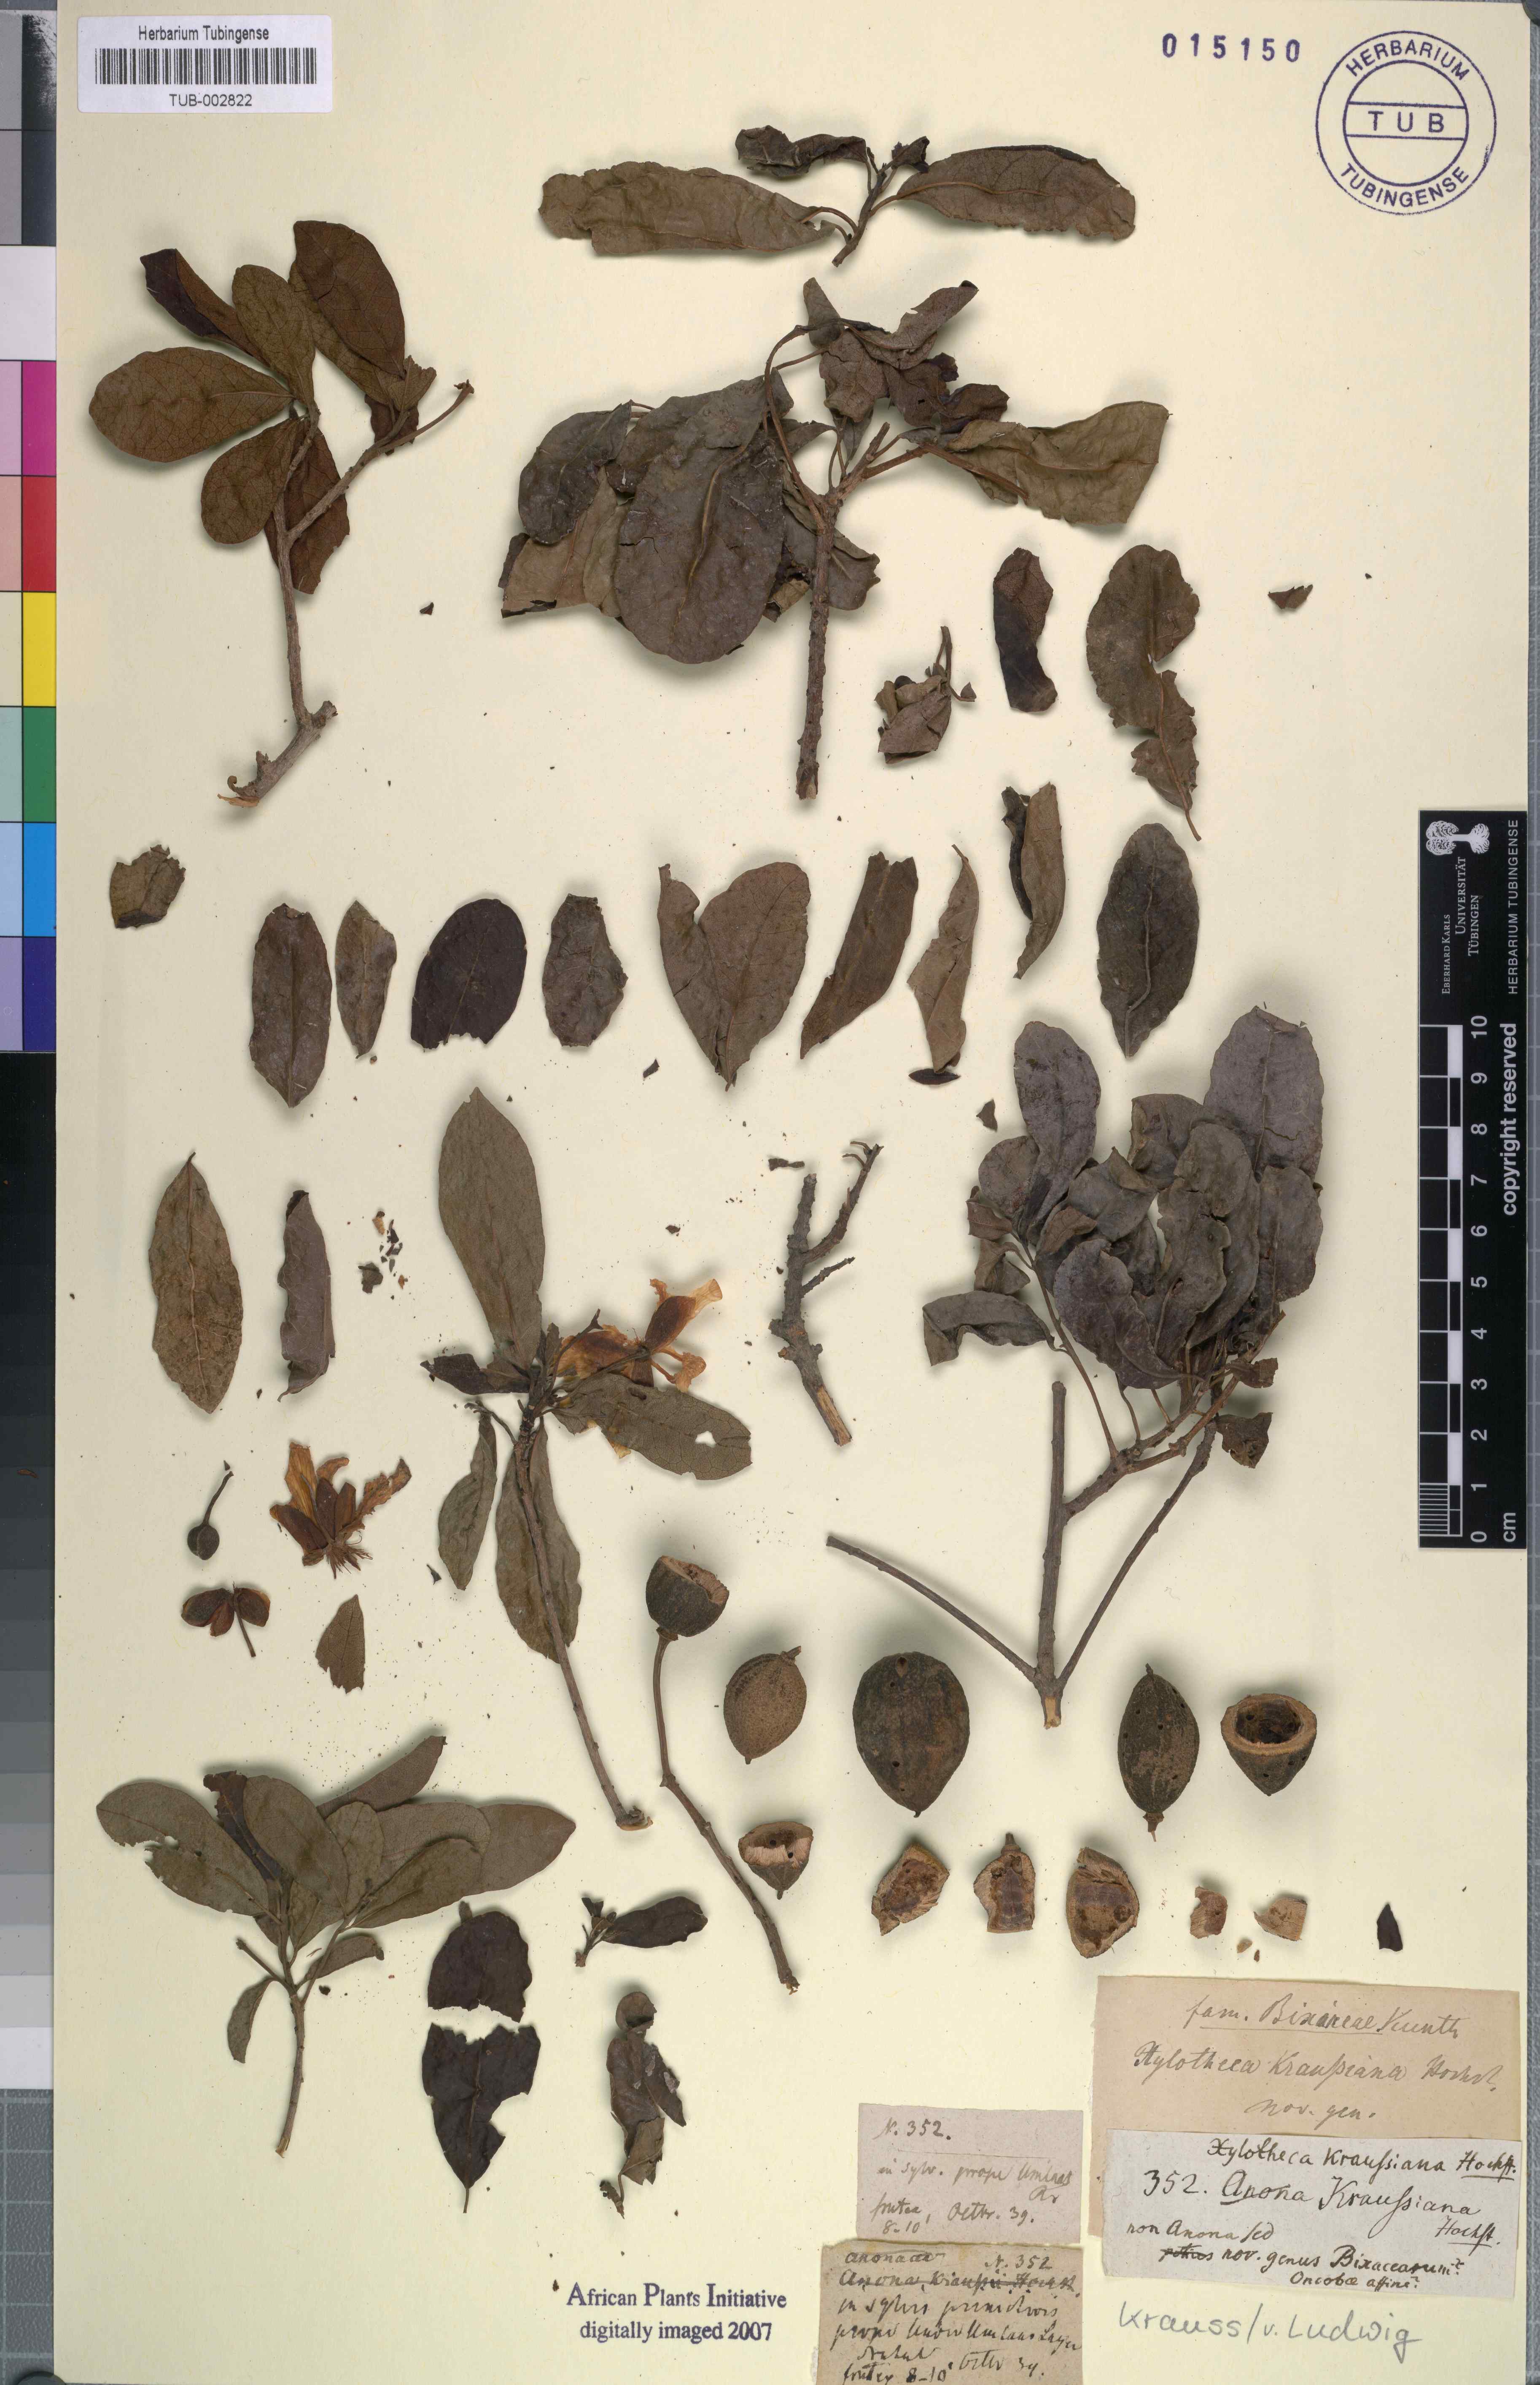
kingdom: Plantae
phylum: Tracheophyta
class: Magnoliopsida
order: Malpighiales
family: Achariaceae
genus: Xylotheca
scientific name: Xylotheca kraussiana
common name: African dog rose
